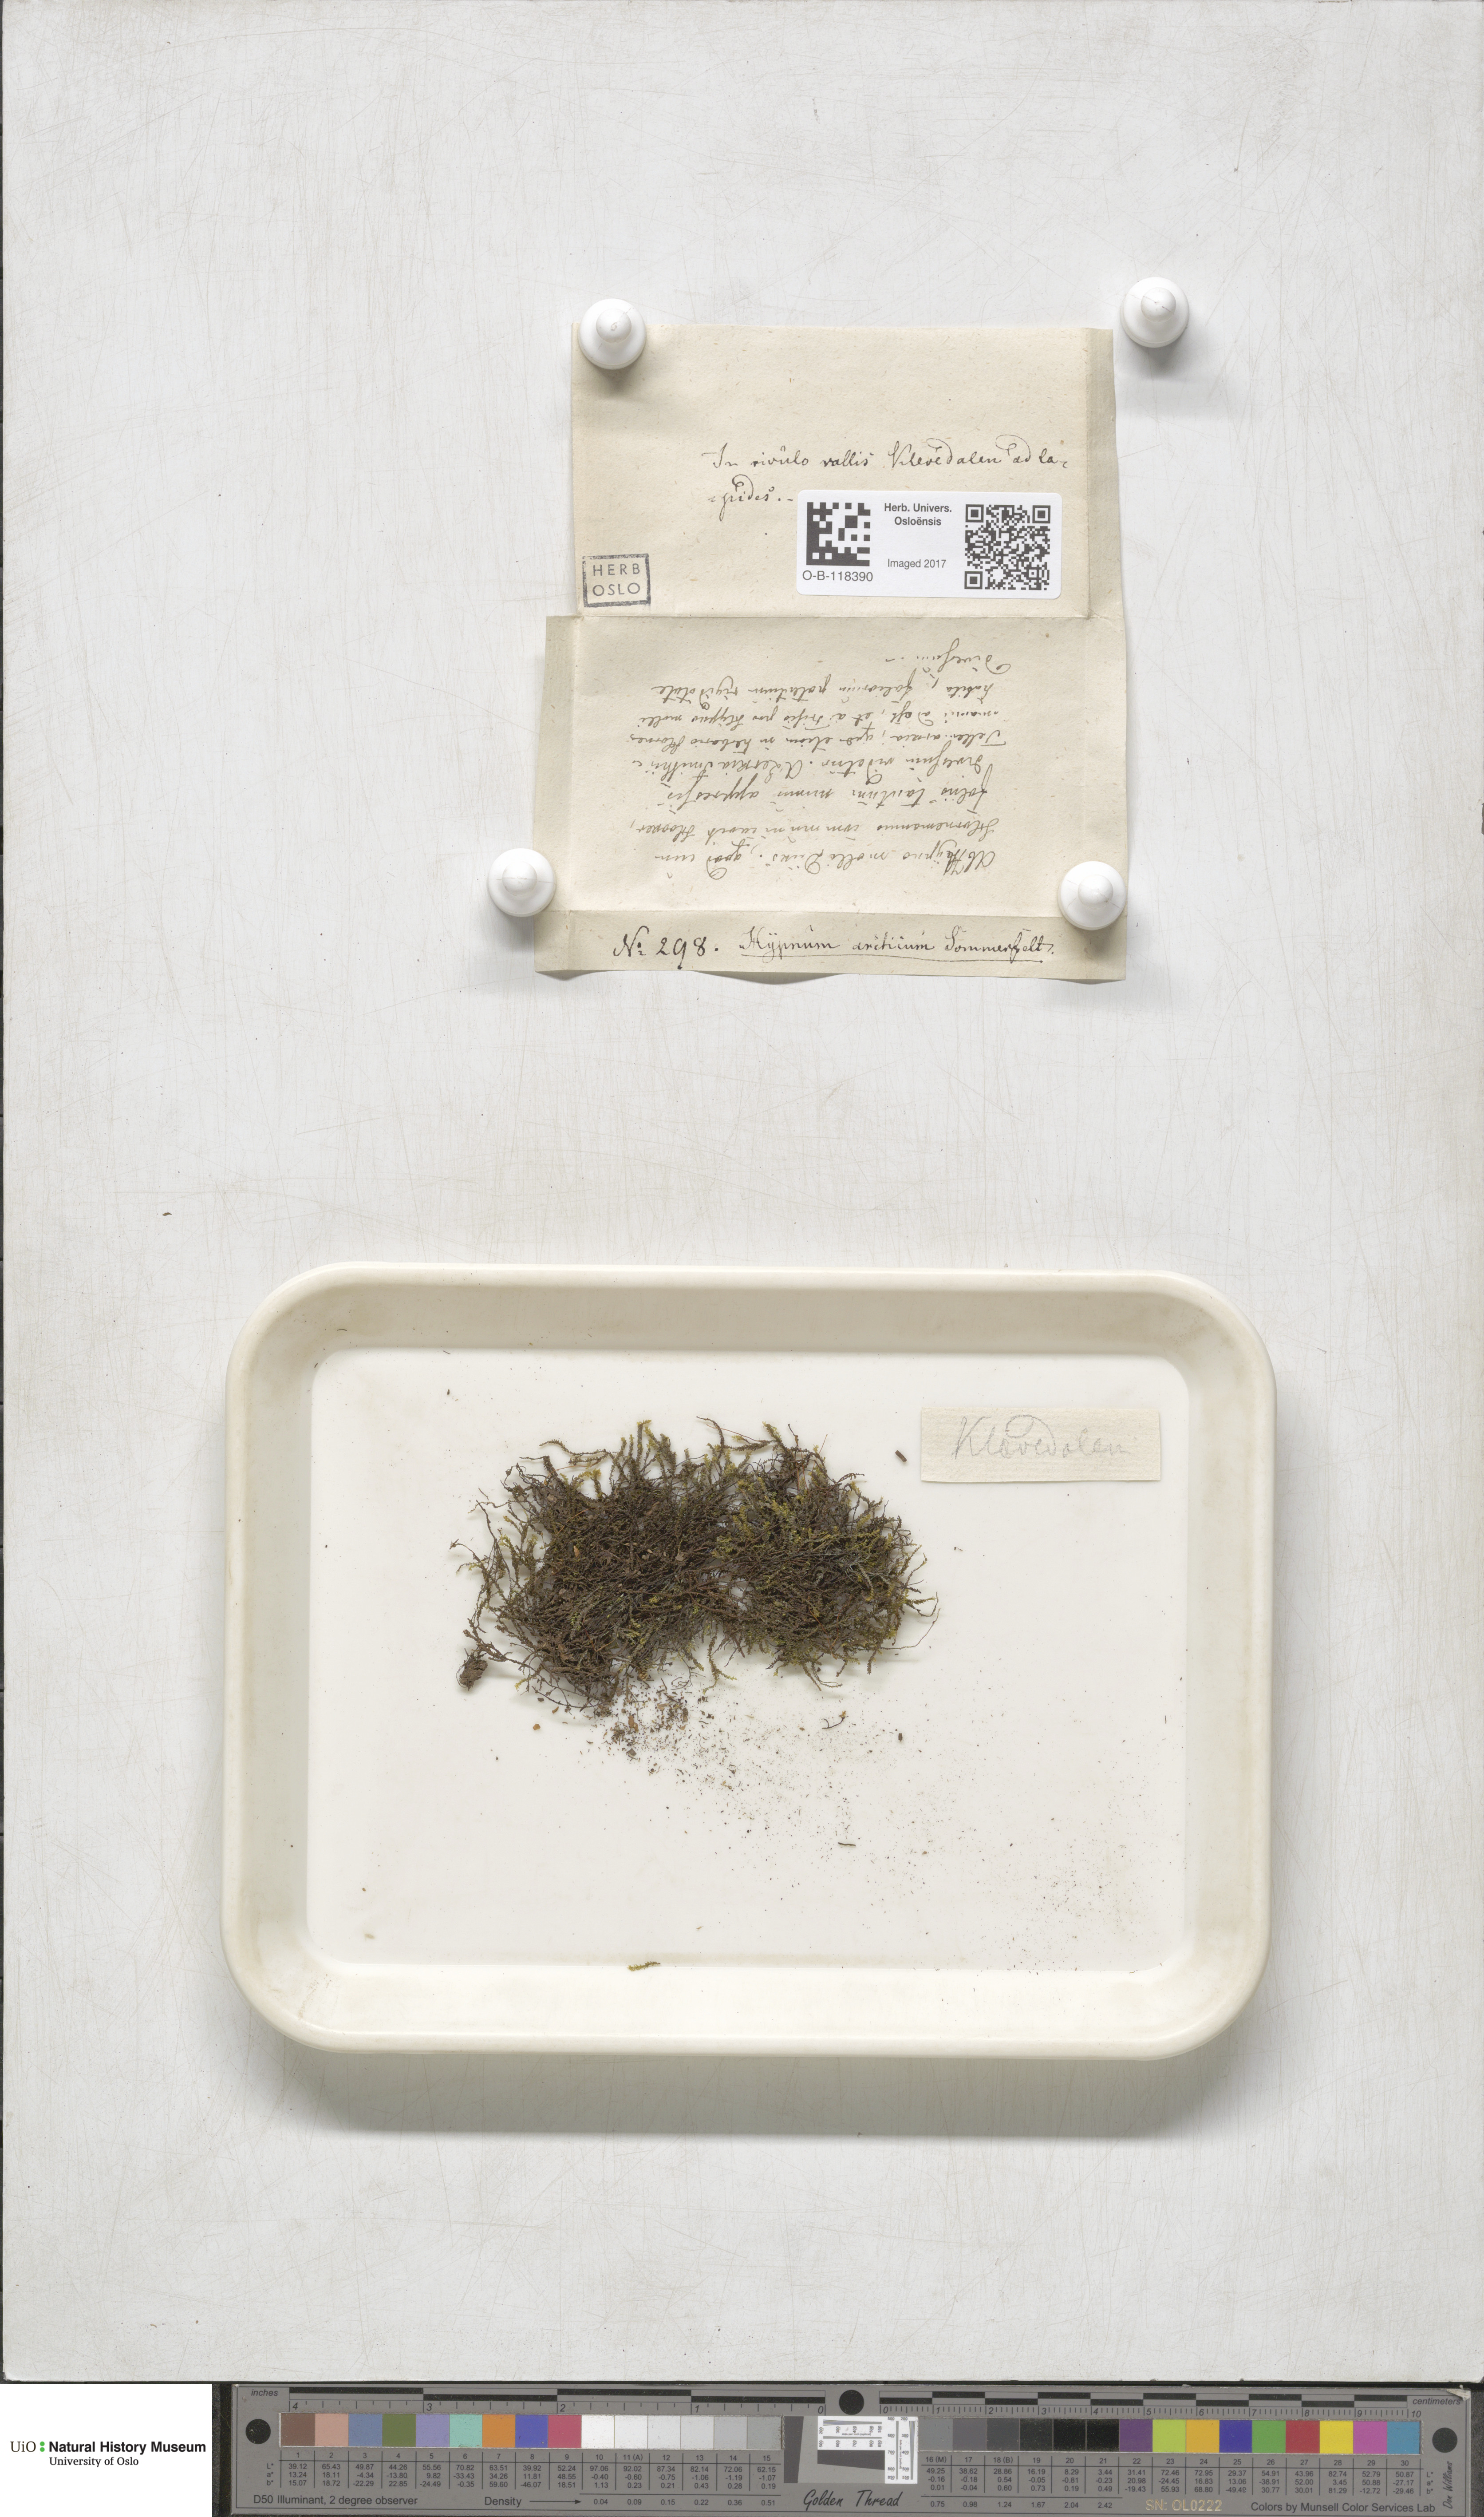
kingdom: Plantae
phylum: Bryophyta
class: Bryopsida
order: Hypnales
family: Amblystegiaceae
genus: Platyhypnum
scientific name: Platyhypnum smithii
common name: Arctic brook-moss
